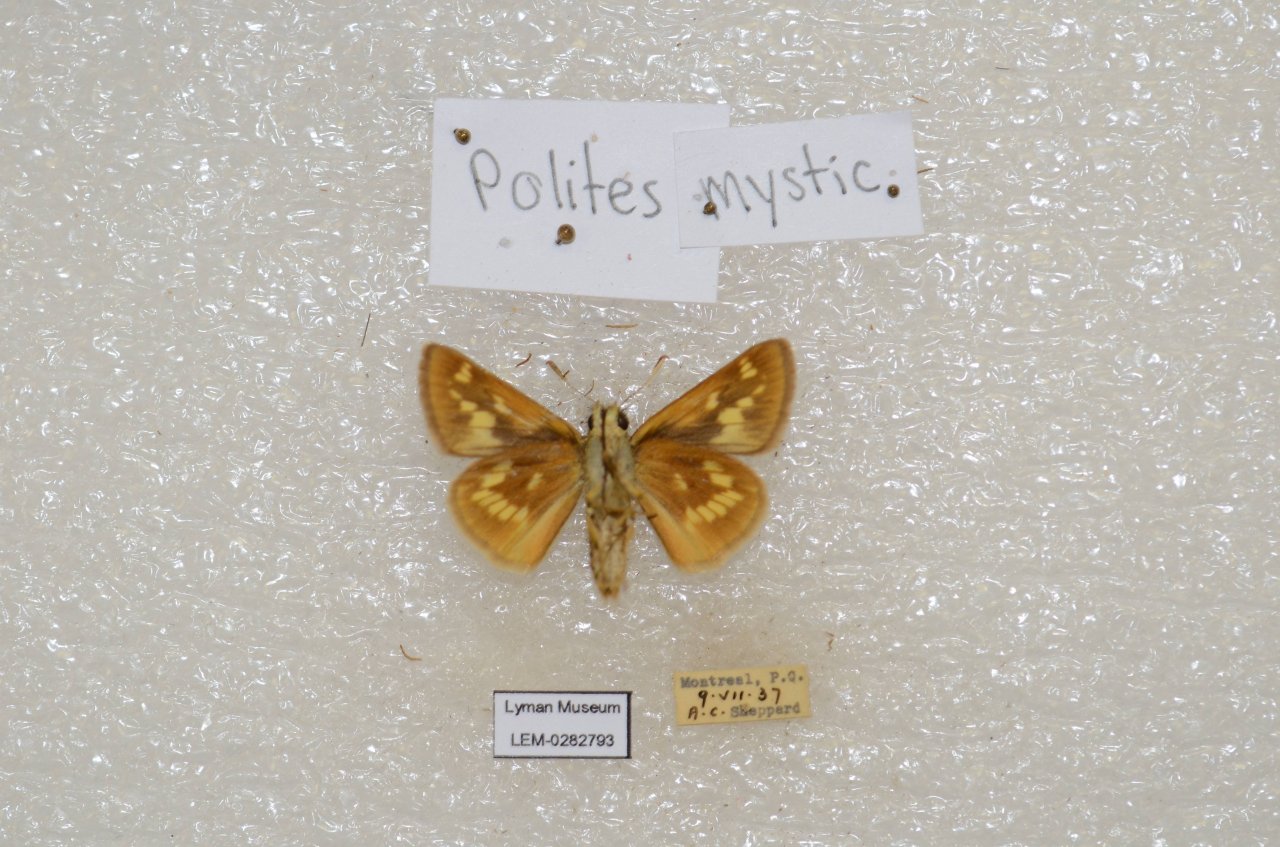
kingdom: Animalia
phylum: Arthropoda
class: Insecta
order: Lepidoptera
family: Hesperiidae
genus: Polites
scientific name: Polites
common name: Long Dash Skipper
